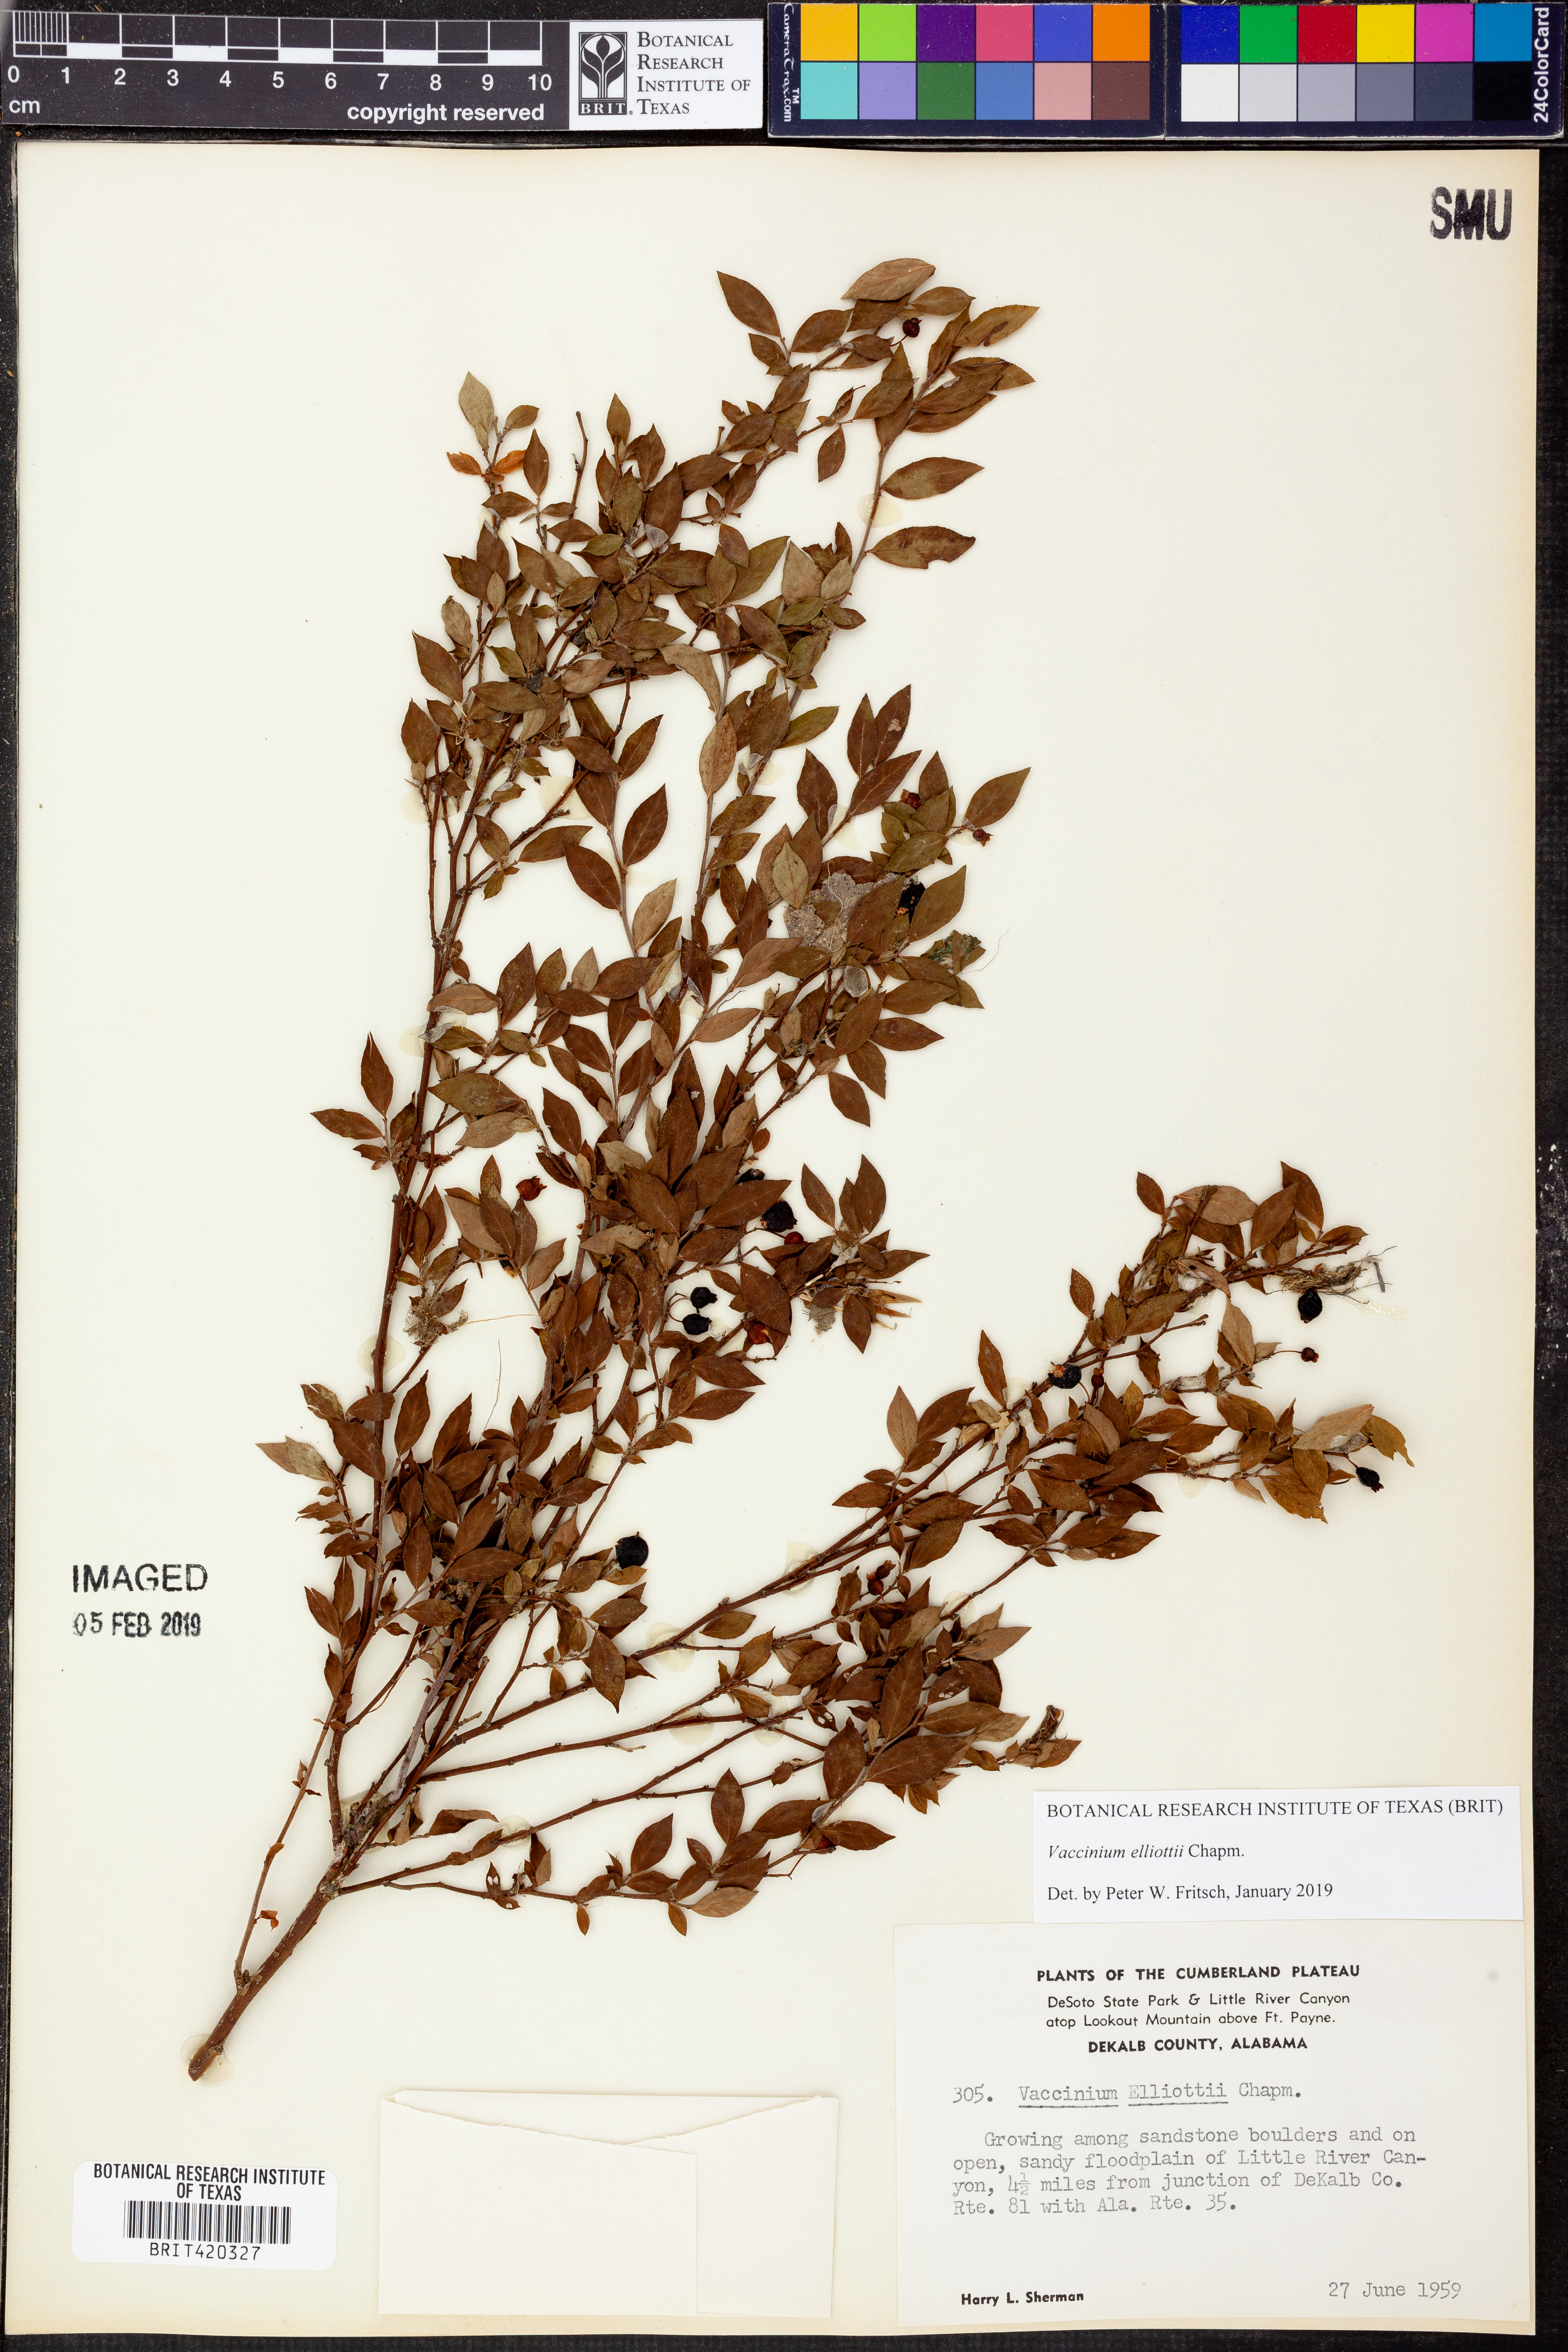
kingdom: Plantae
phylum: Tracheophyta
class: Magnoliopsida
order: Ericales
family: Ericaceae
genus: Vaccinium
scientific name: Vaccinium corymbosum
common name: Blueberry
